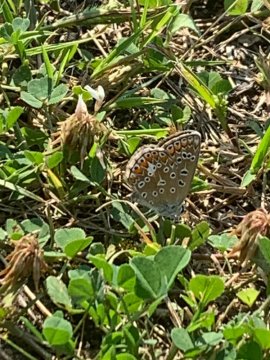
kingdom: Animalia
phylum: Arthropoda
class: Insecta
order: Lepidoptera
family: Lycaenidae
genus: Polyommatus
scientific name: Polyommatus icarus
